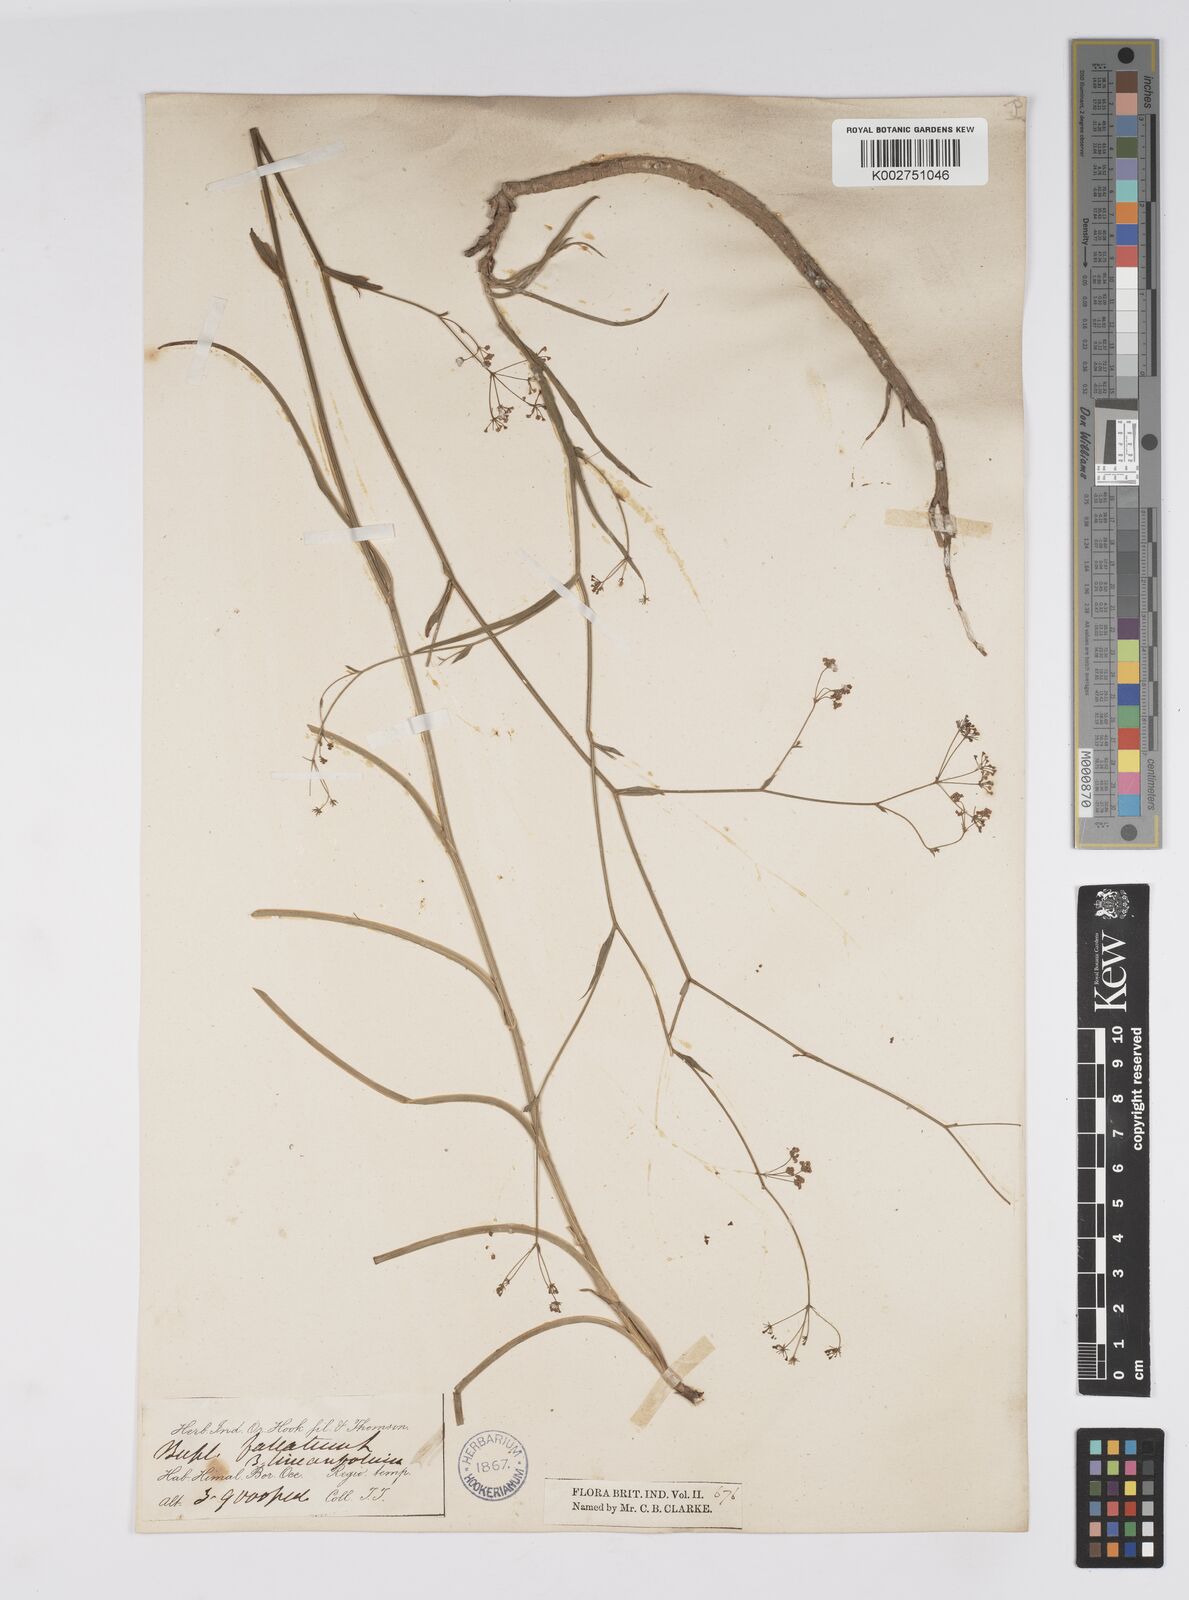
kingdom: Plantae
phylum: Tracheophyta
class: Magnoliopsida
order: Apiales
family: Apiaceae
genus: Bupleurum
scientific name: Bupleurum exaltatum
